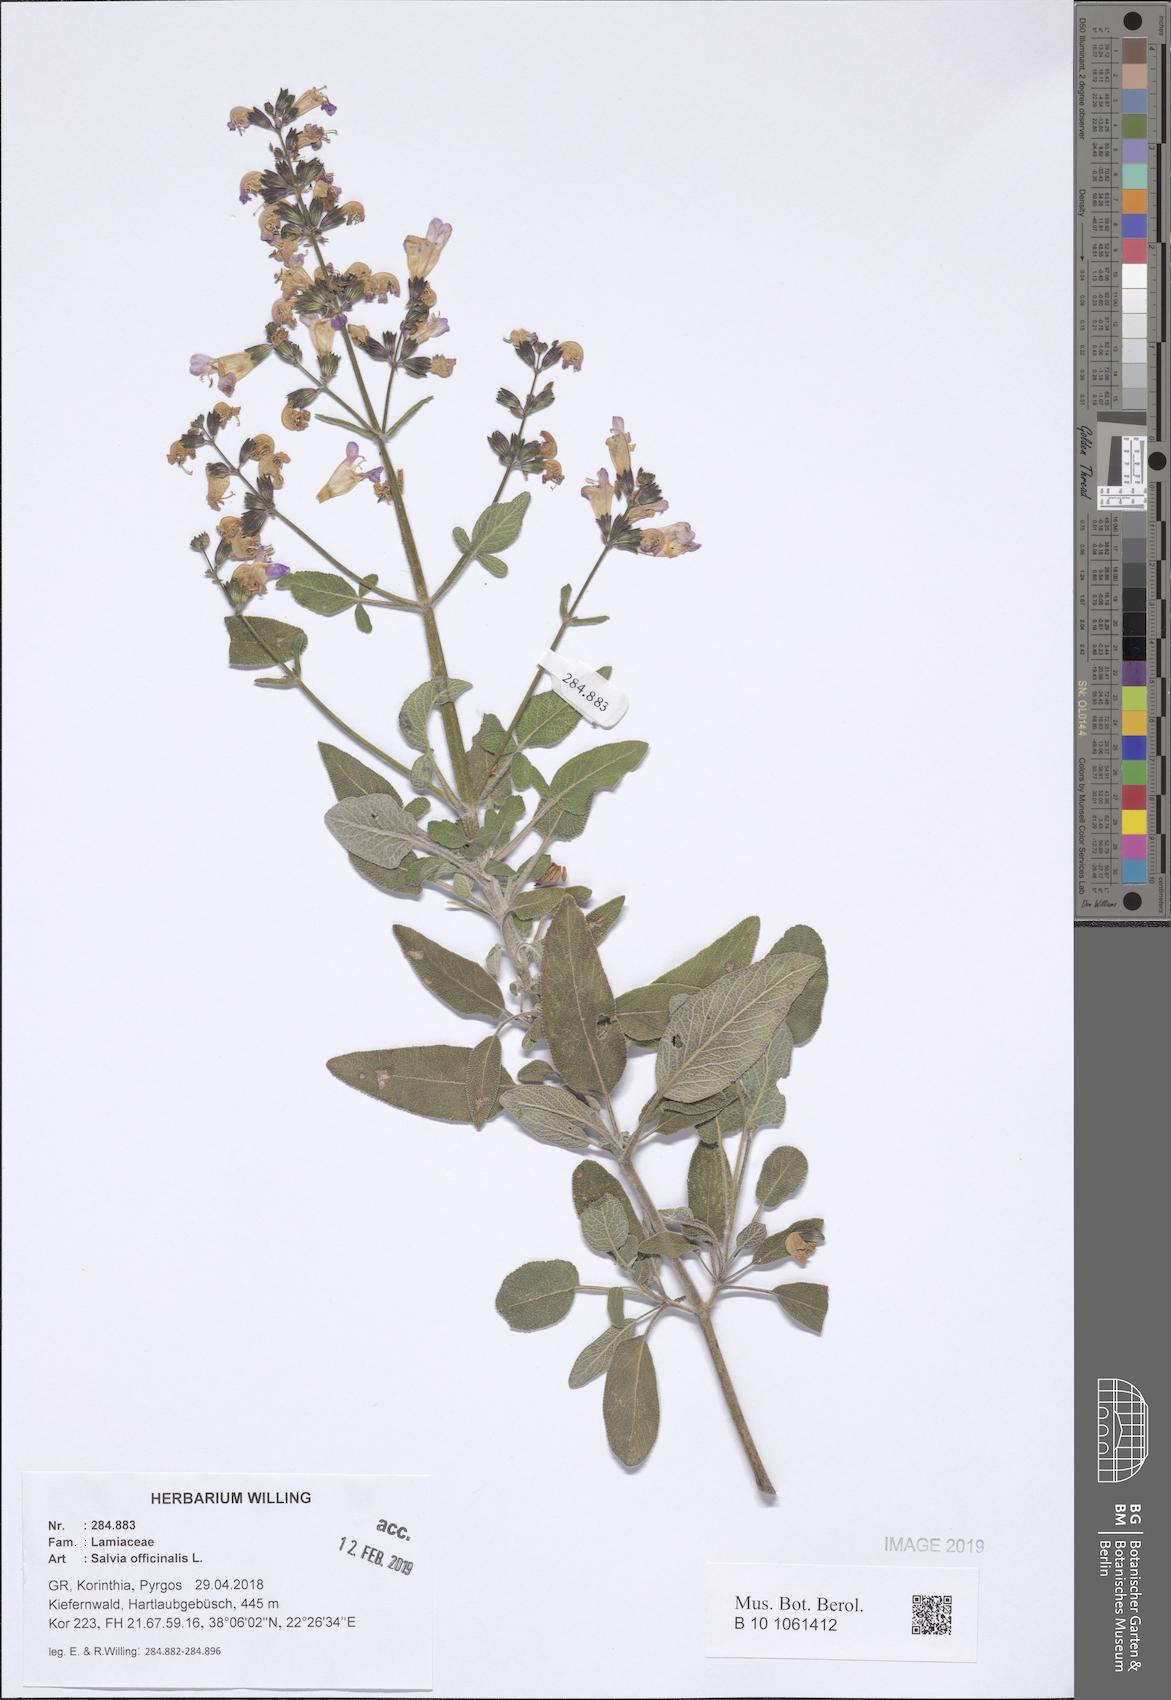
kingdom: Plantae
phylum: Tracheophyta
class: Magnoliopsida
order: Lamiales
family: Lamiaceae
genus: Salvia
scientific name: Salvia fruticosa
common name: Greek sage
